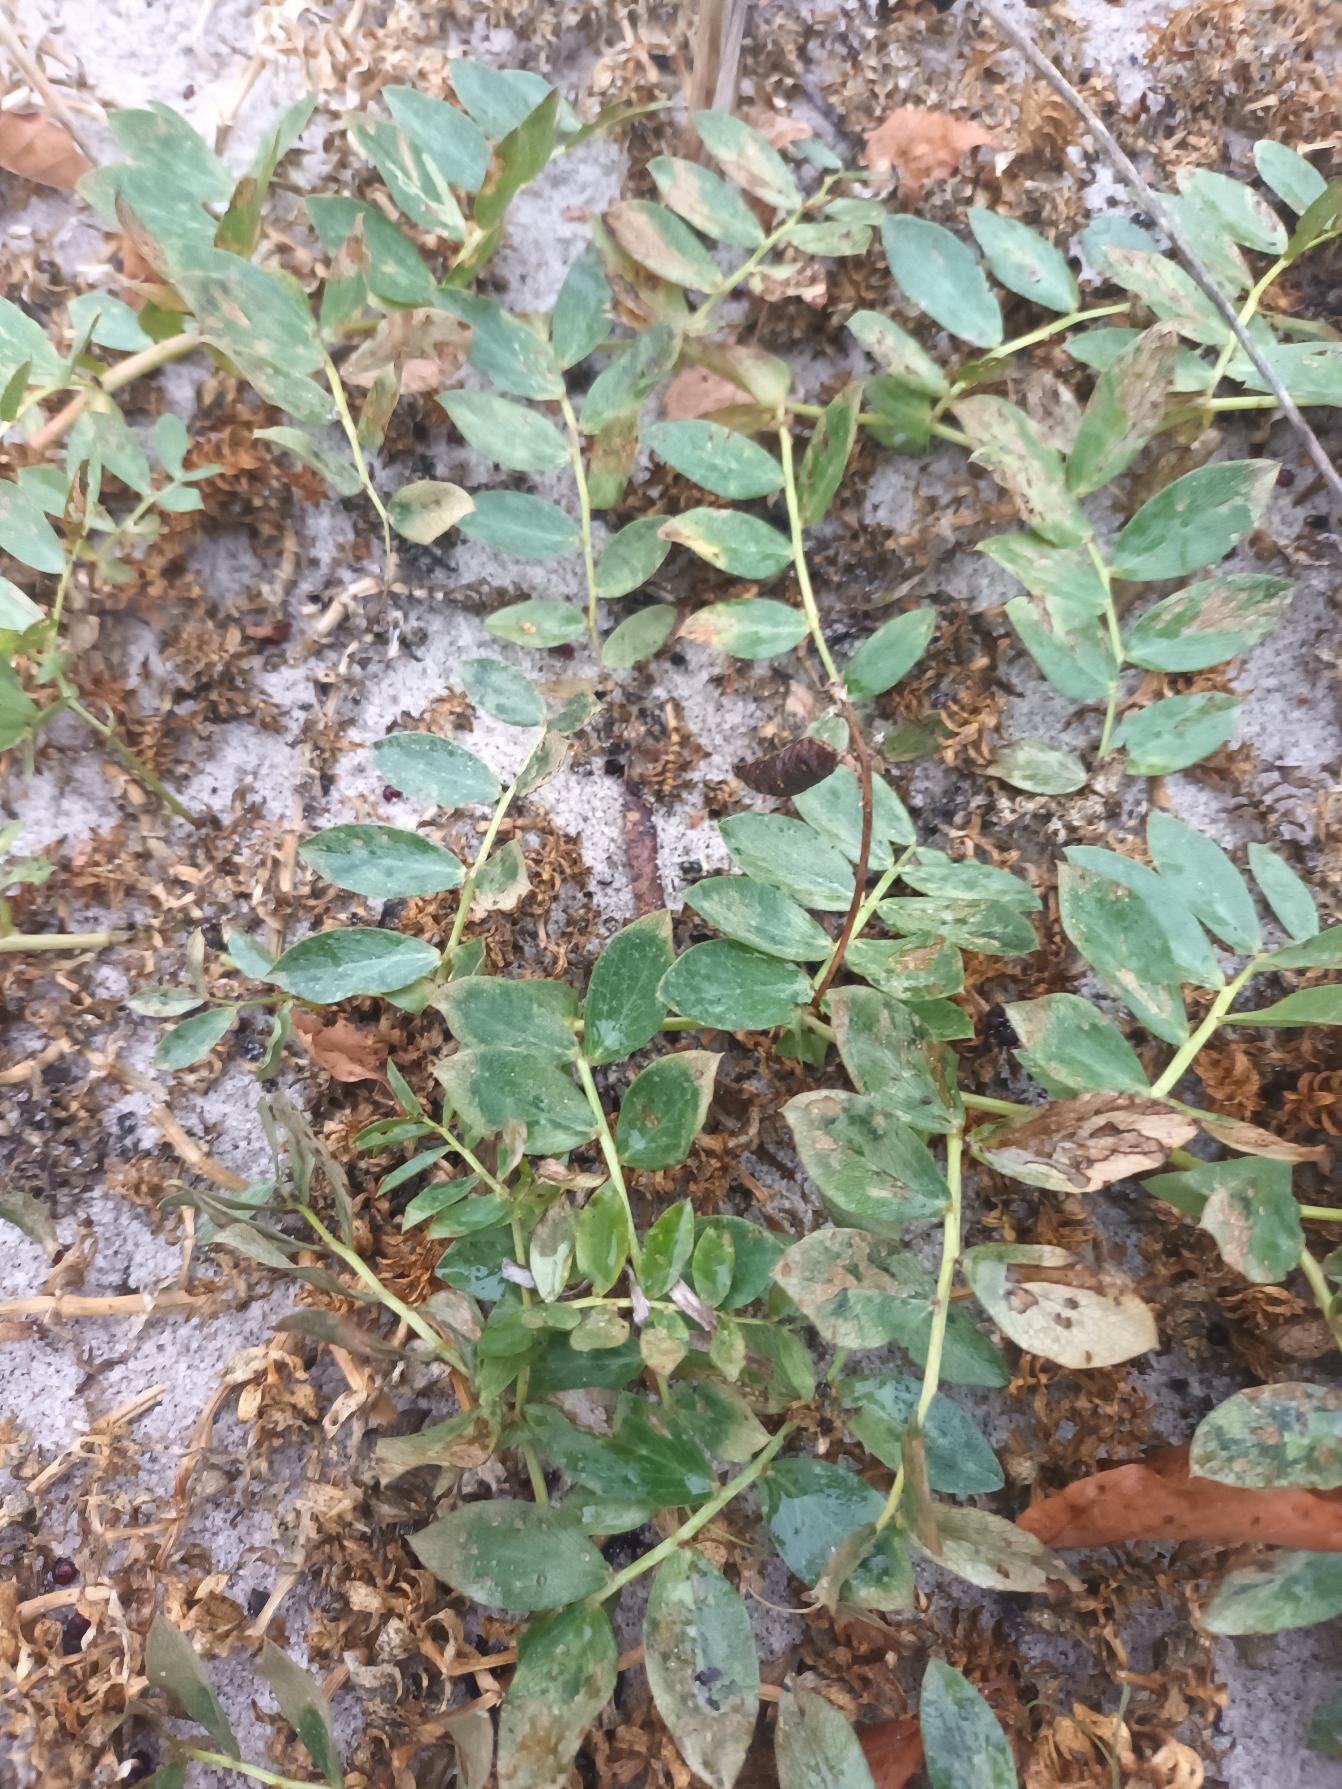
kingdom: Plantae
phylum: Tracheophyta
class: Magnoliopsida
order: Fabales
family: Fabaceae
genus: Lathyrus
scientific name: Lathyrus japonicus
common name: Strand-fladbælg
